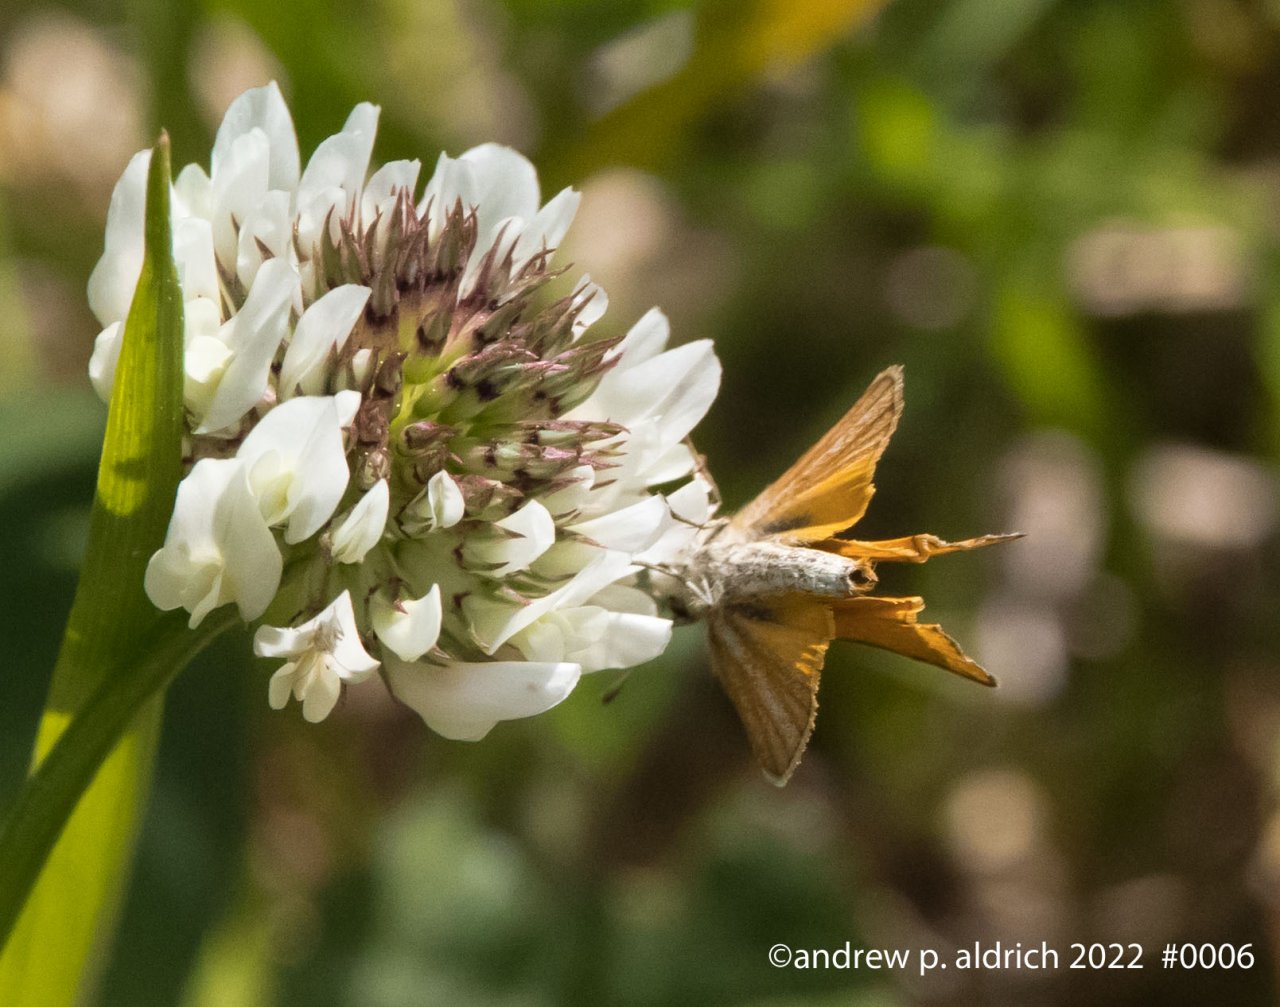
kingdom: Animalia
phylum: Arthropoda
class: Insecta
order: Lepidoptera
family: Hesperiidae
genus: Ancyloxypha
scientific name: Ancyloxypha numitor
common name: Least Skipper
